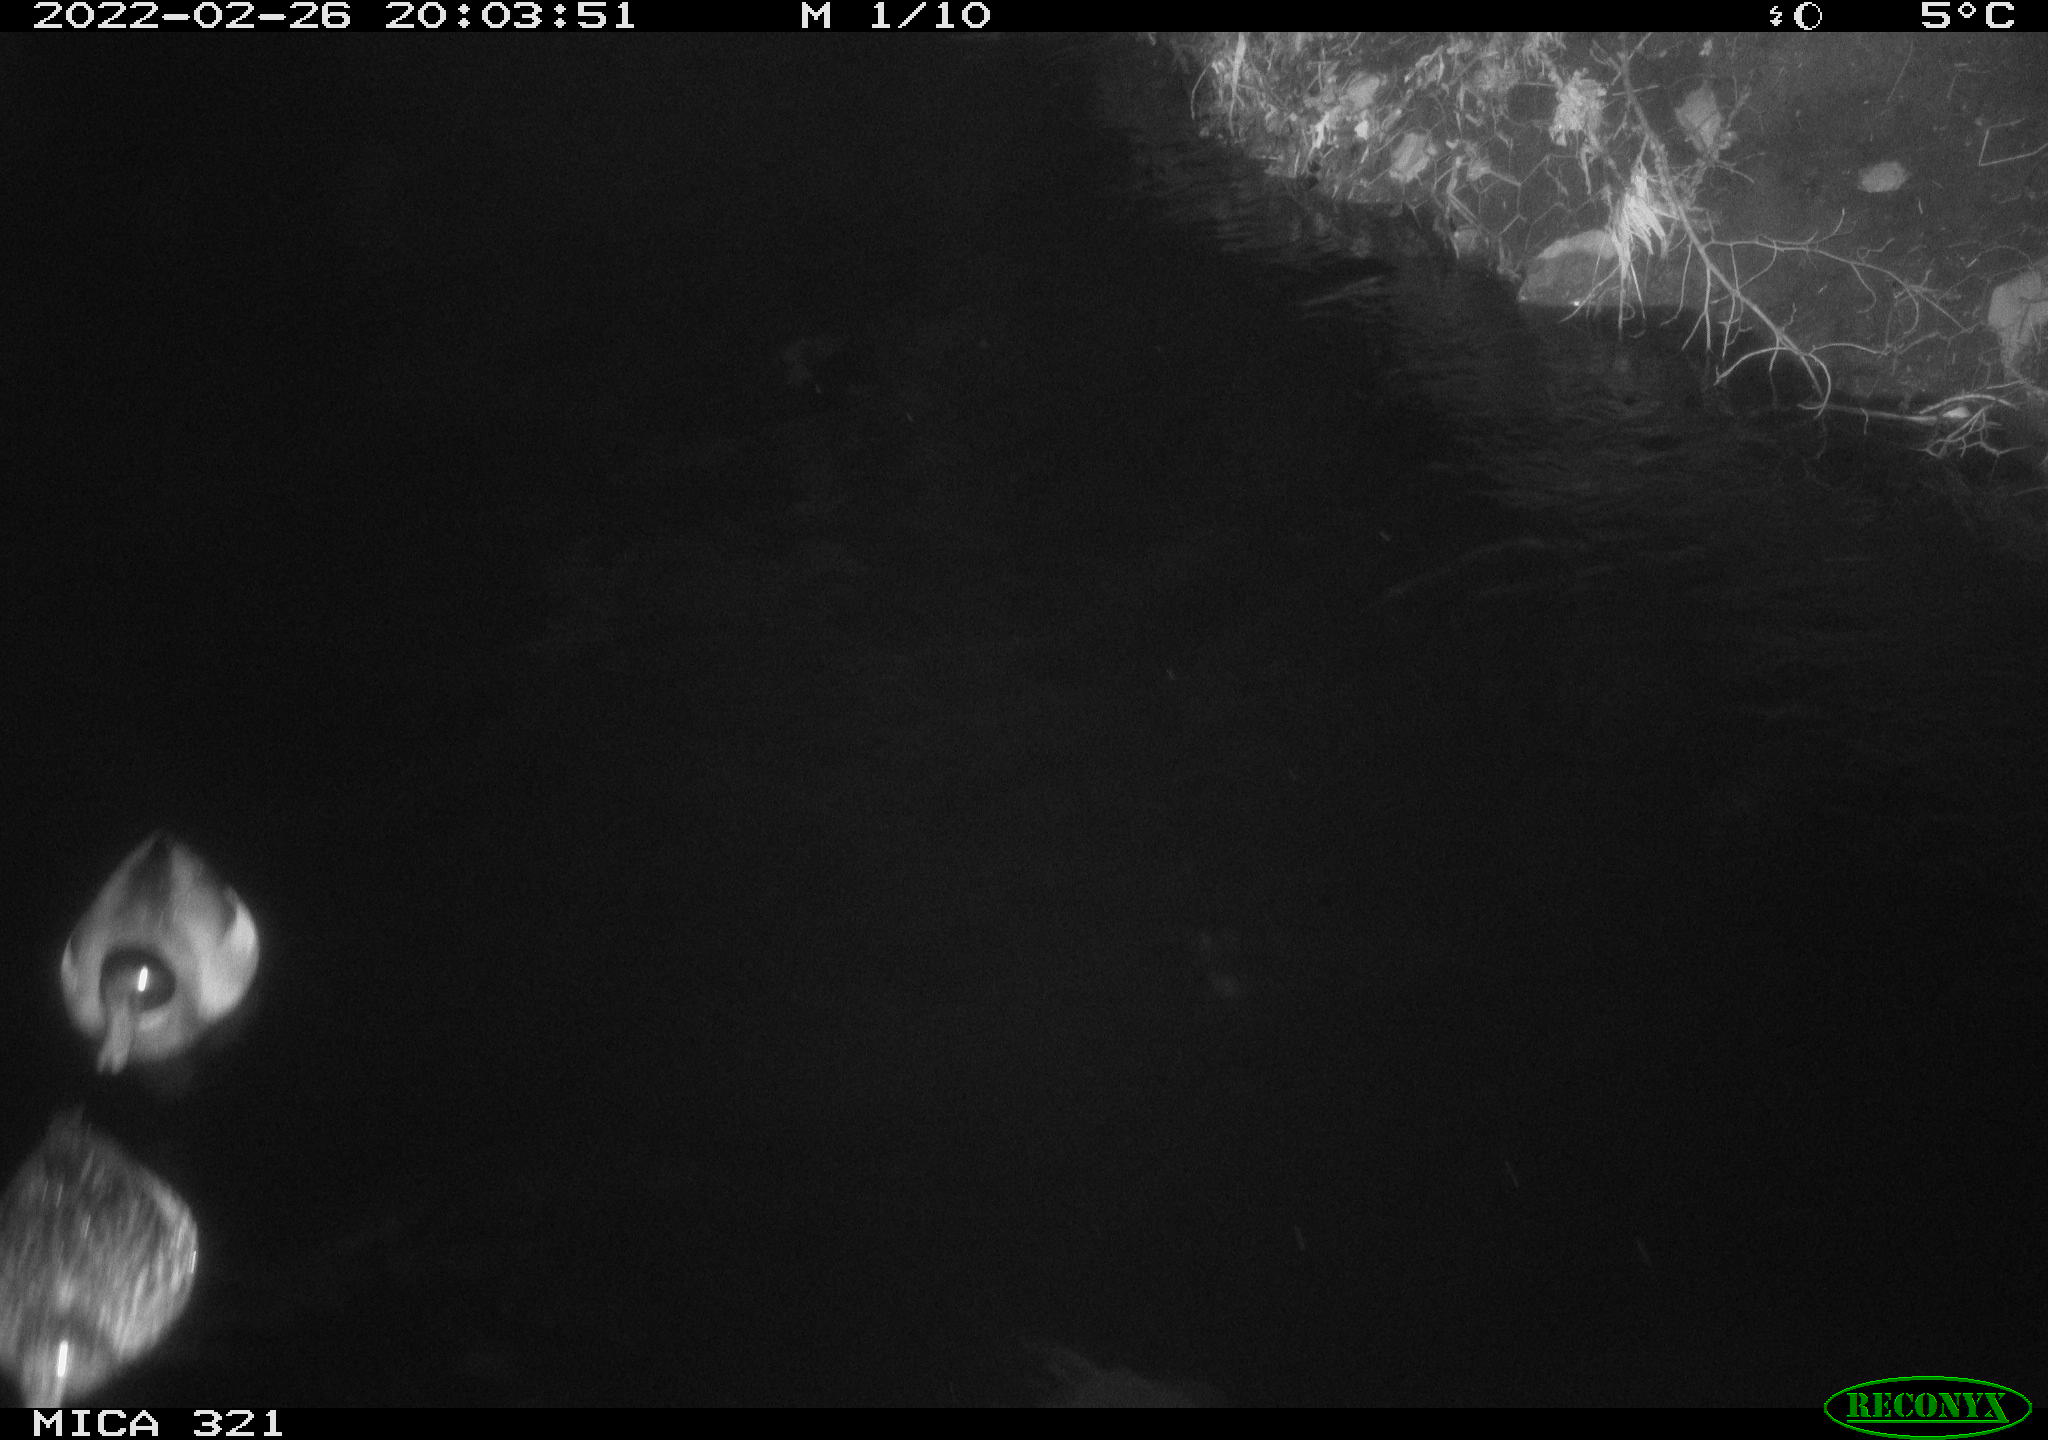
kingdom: Animalia
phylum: Chordata
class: Aves
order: Anseriformes
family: Anatidae
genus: Anas
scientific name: Anas platyrhynchos
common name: Mallard
